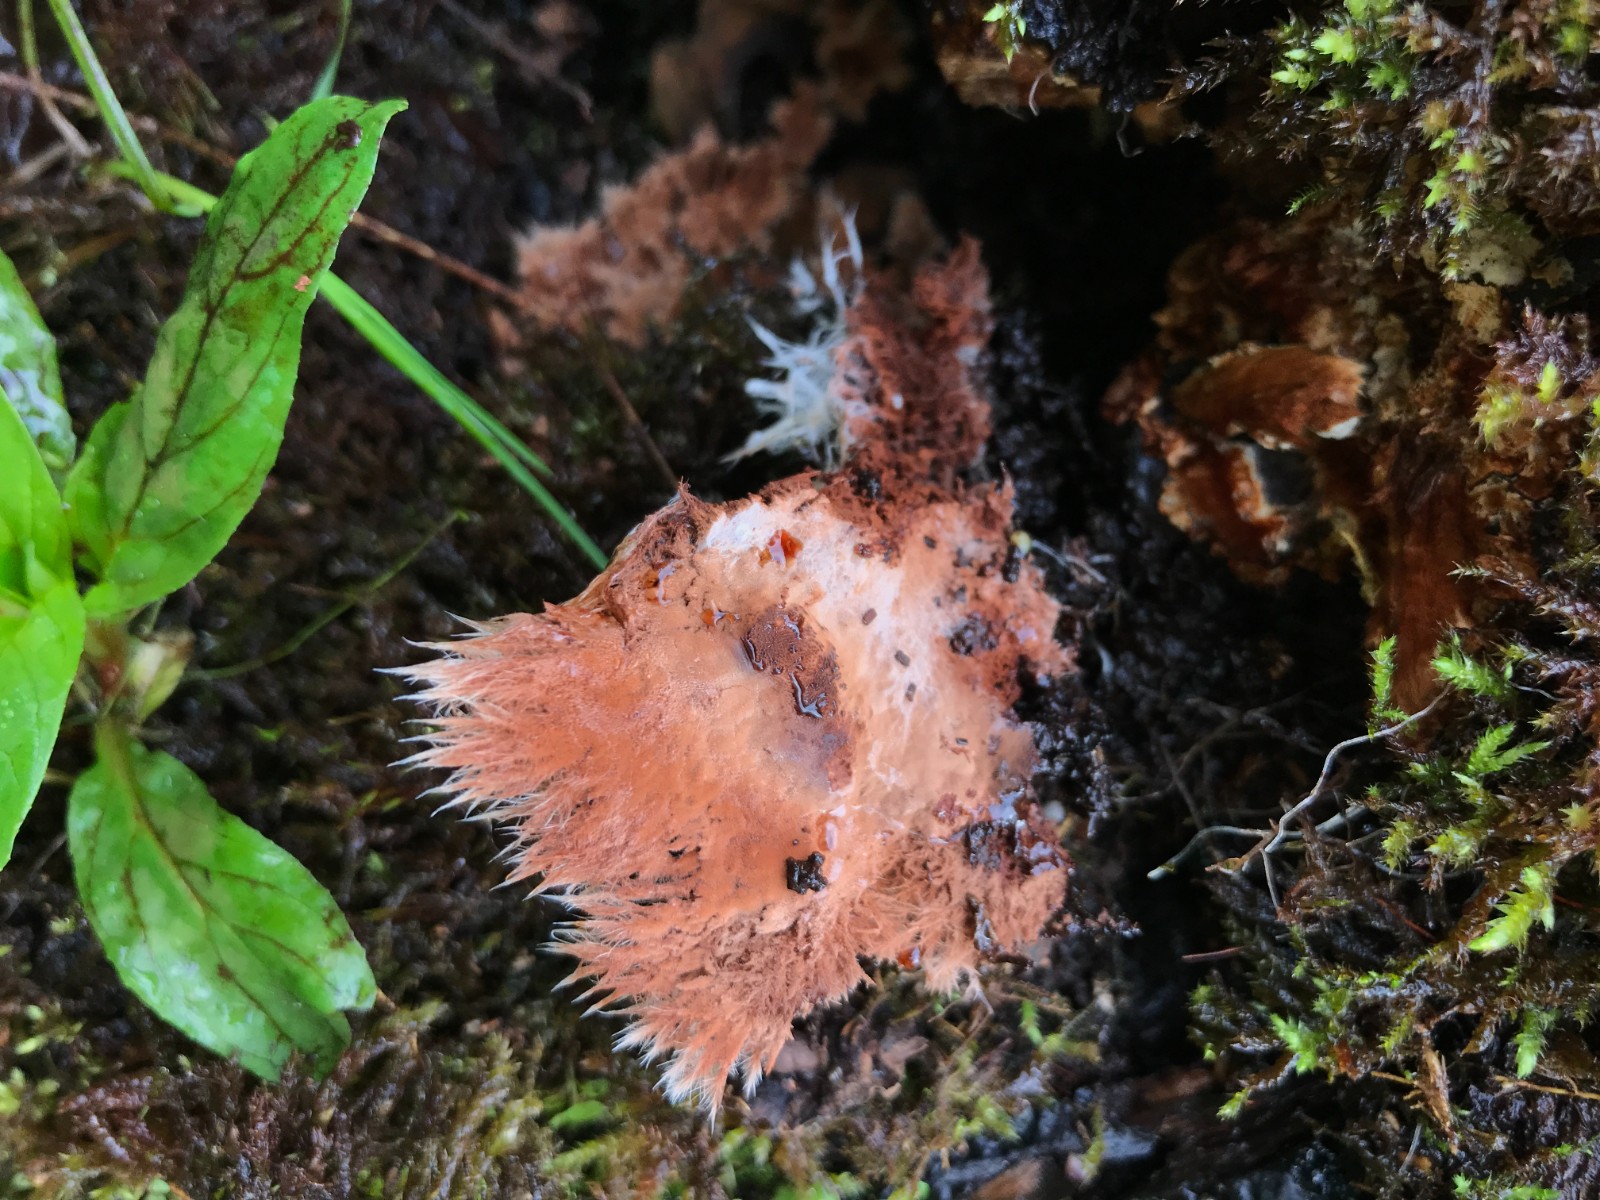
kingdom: Fungi
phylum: Ascomycota
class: Sordariomycetes
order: Hypocreales
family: Hypocreaceae
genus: Sporophagomyces
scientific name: Sporophagomyces chrysostomus
